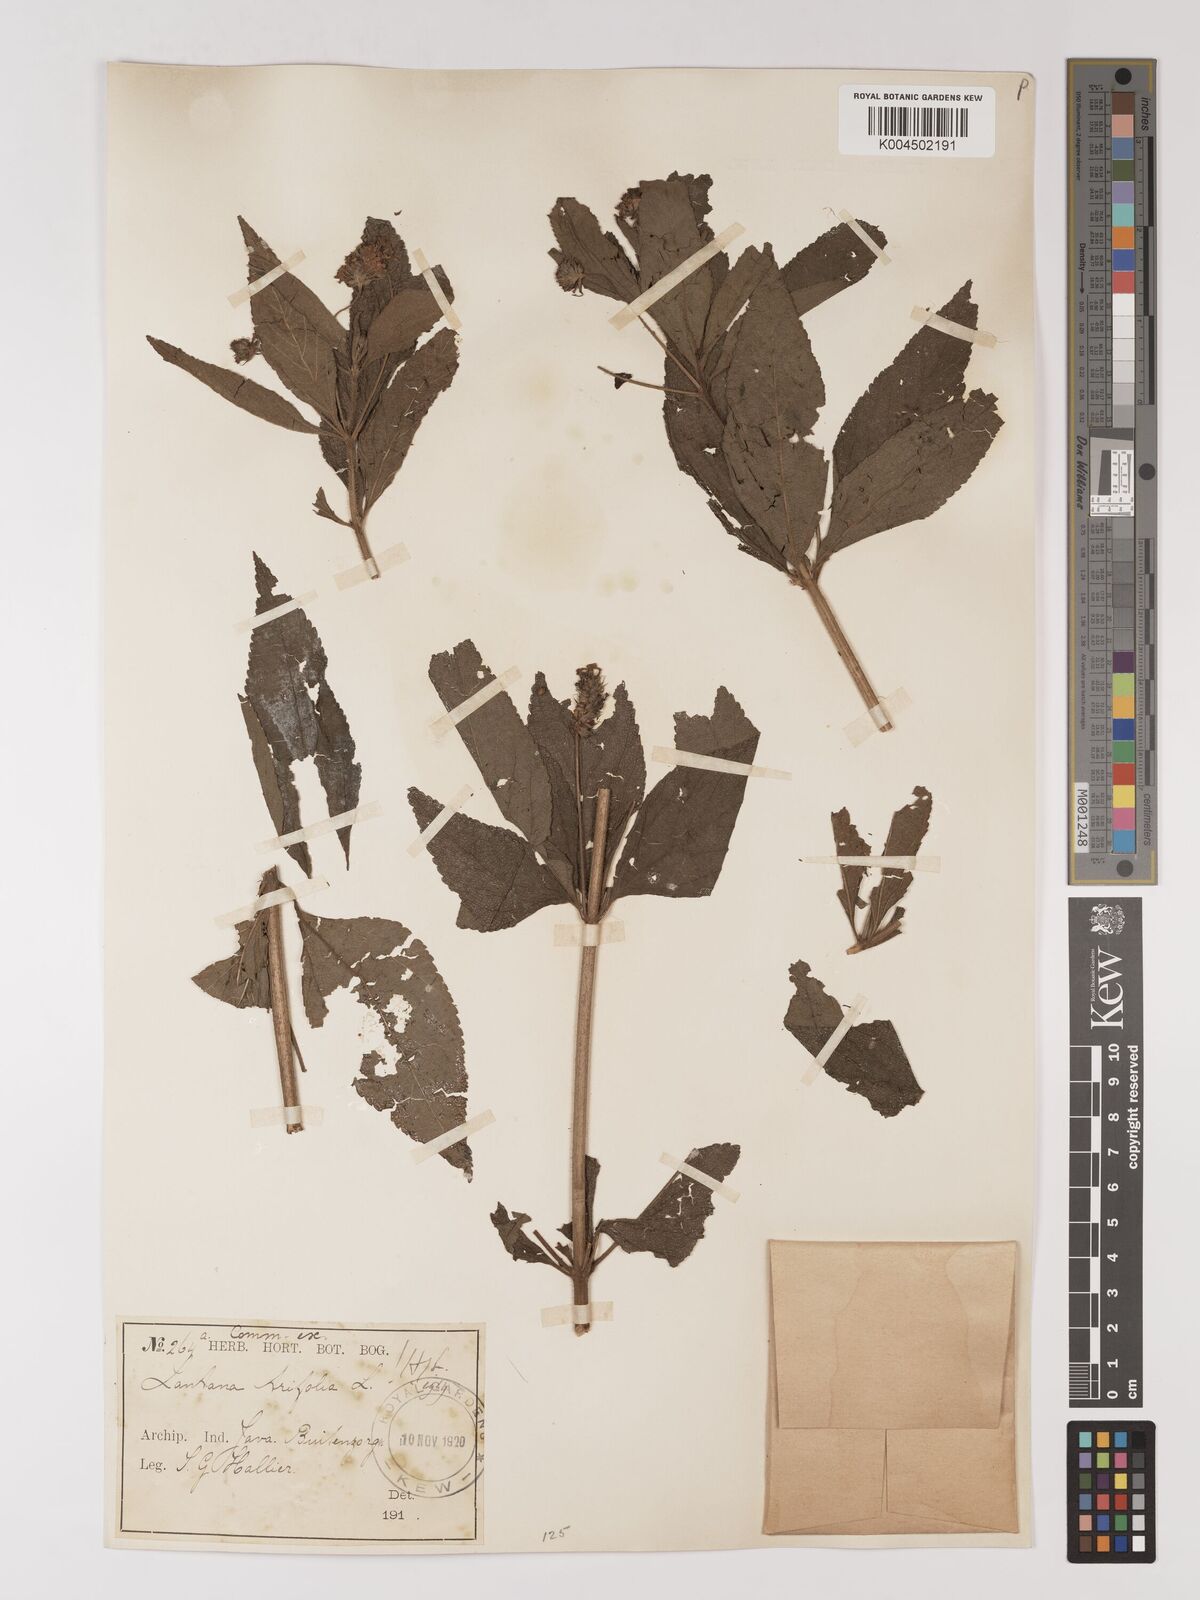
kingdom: Plantae
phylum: Tracheophyta
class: Magnoliopsida
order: Lamiales
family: Verbenaceae
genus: Lantana
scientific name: Lantana trifolia
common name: Sweet-sage
